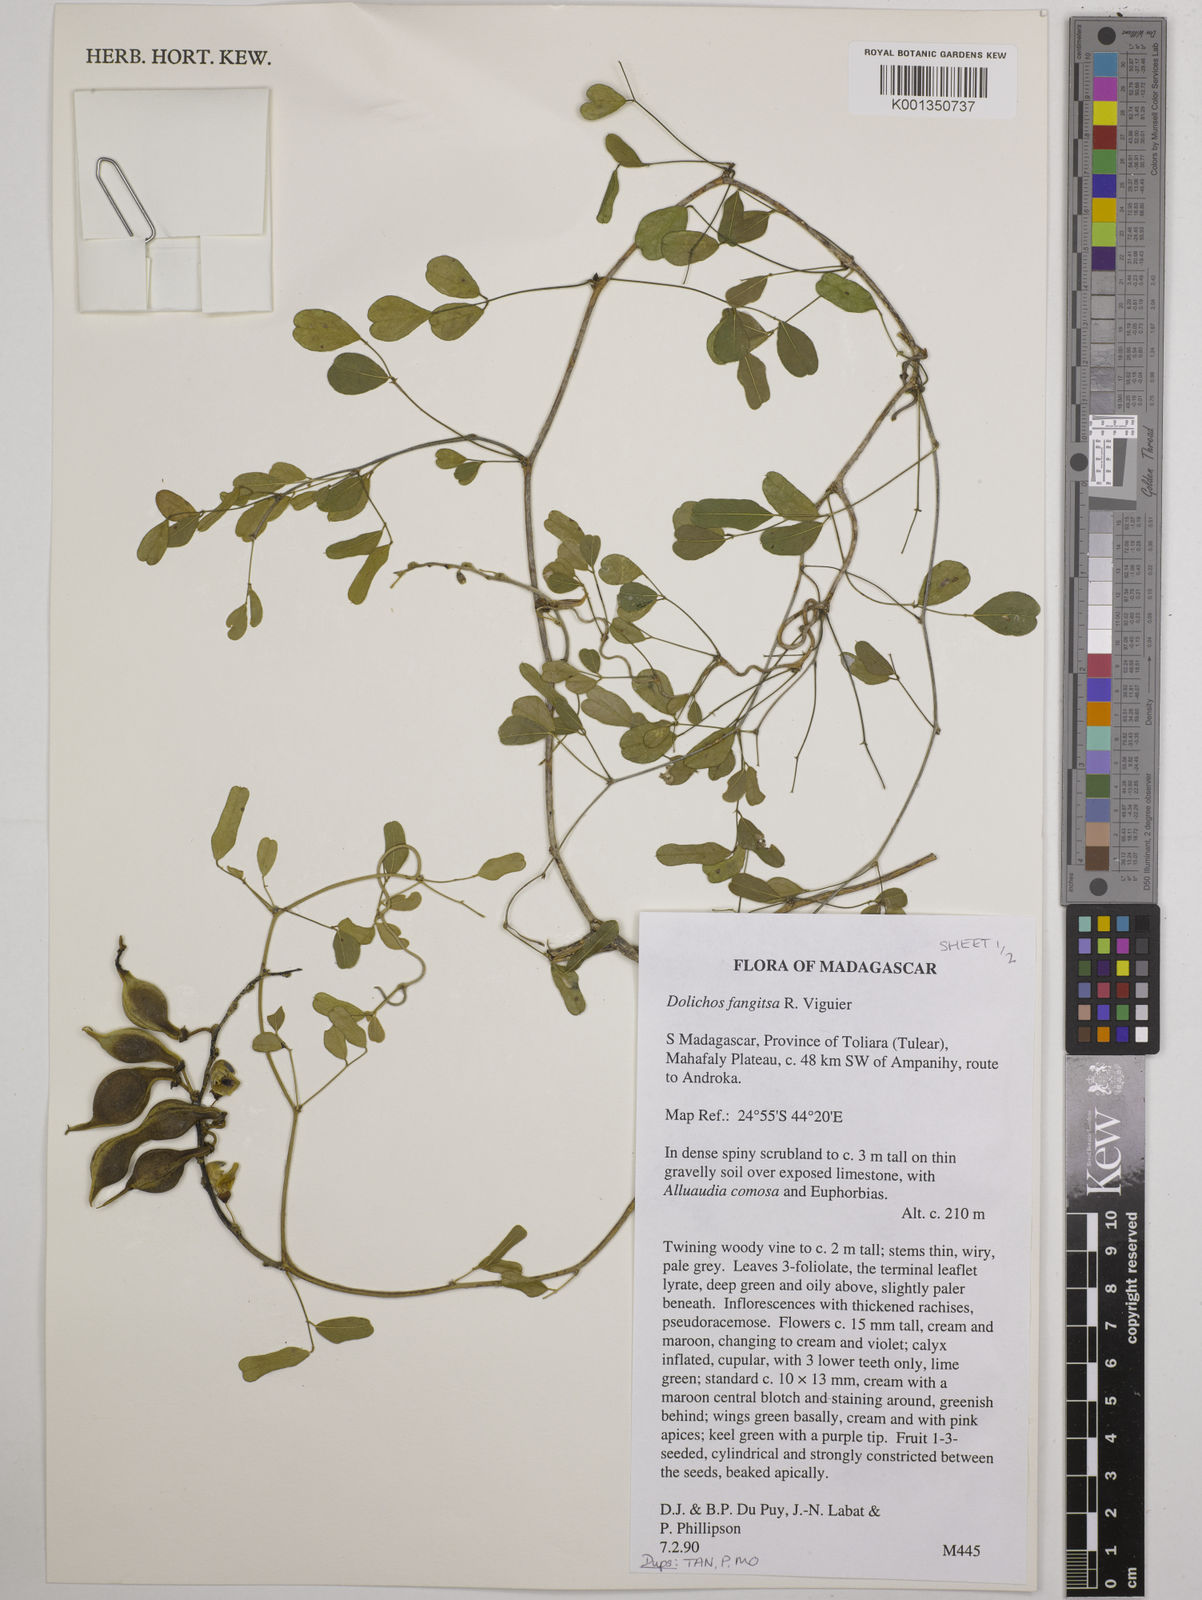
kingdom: Plantae
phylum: Tracheophyta
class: Magnoliopsida
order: Fabales
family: Fabaceae
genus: Dolichos
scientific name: Dolichos fangitsa
